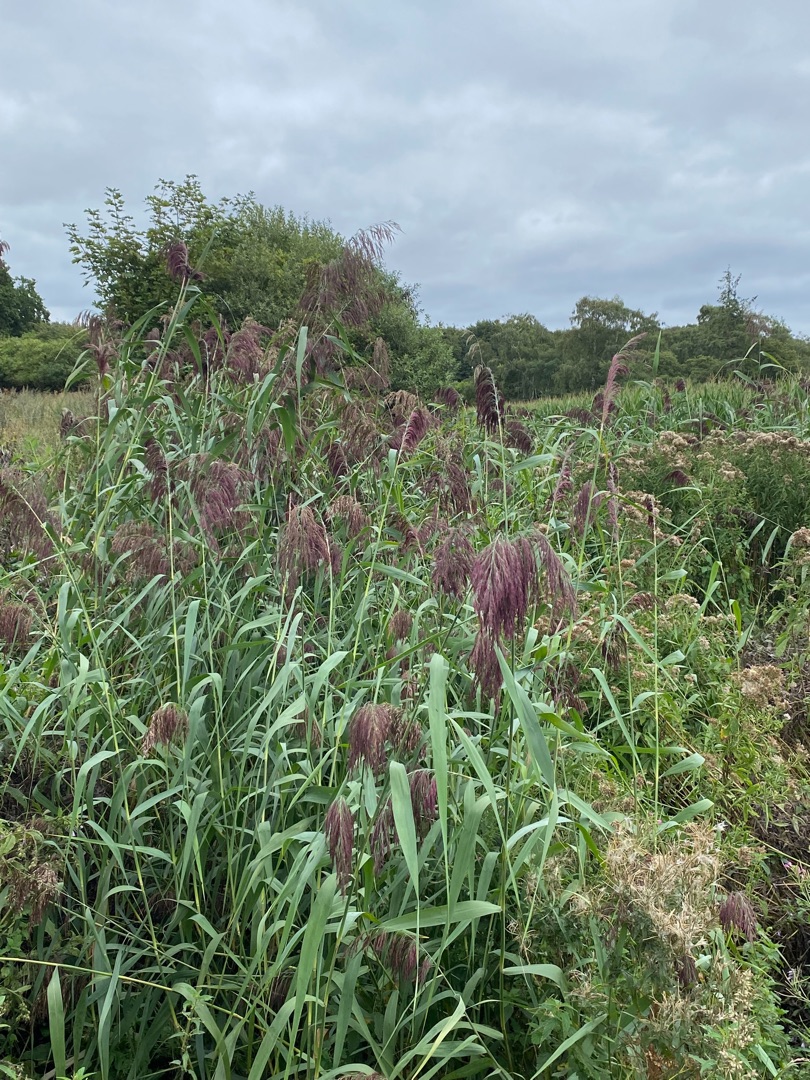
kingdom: Plantae
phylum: Tracheophyta
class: Liliopsida
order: Poales
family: Poaceae
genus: Phragmites
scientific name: Phragmites australis
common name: Tagrør
